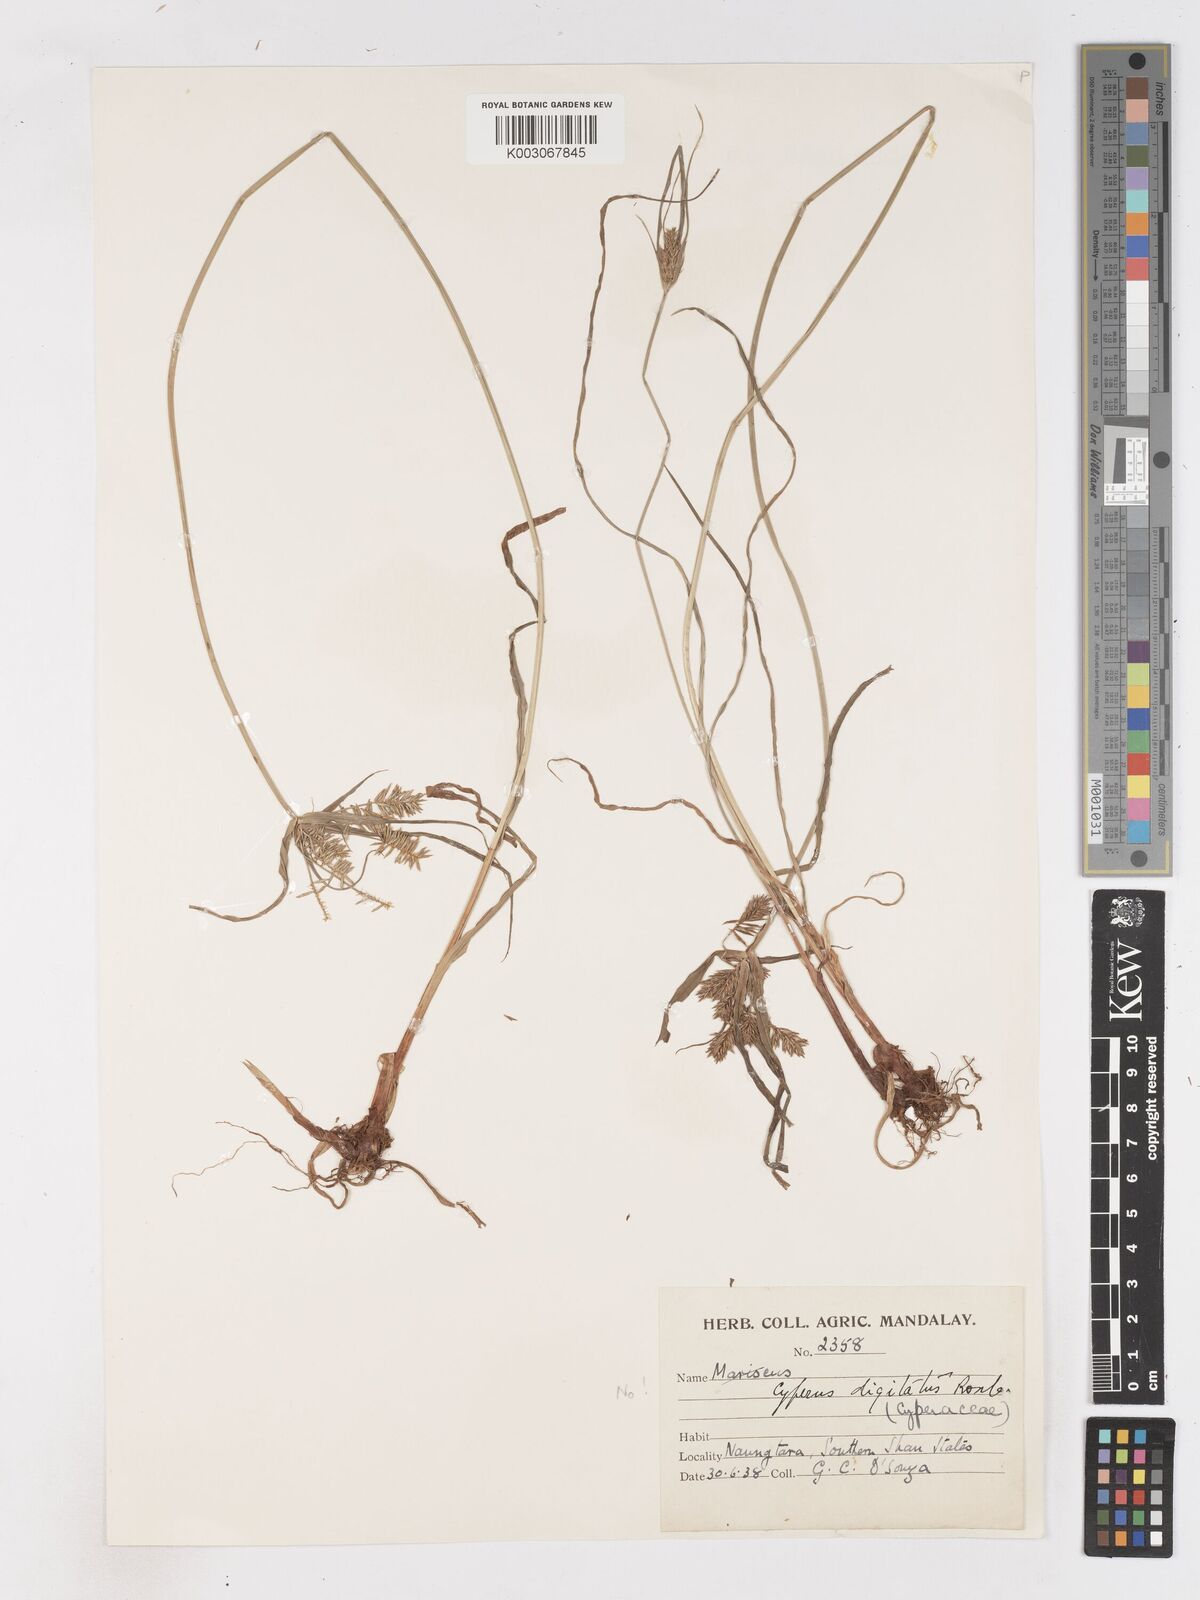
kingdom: Plantae
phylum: Tracheophyta
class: Liliopsida
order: Poales
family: Cyperaceae
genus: Cyperus
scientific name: Cyperus cyperoides
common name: Pacific island flat sedge
